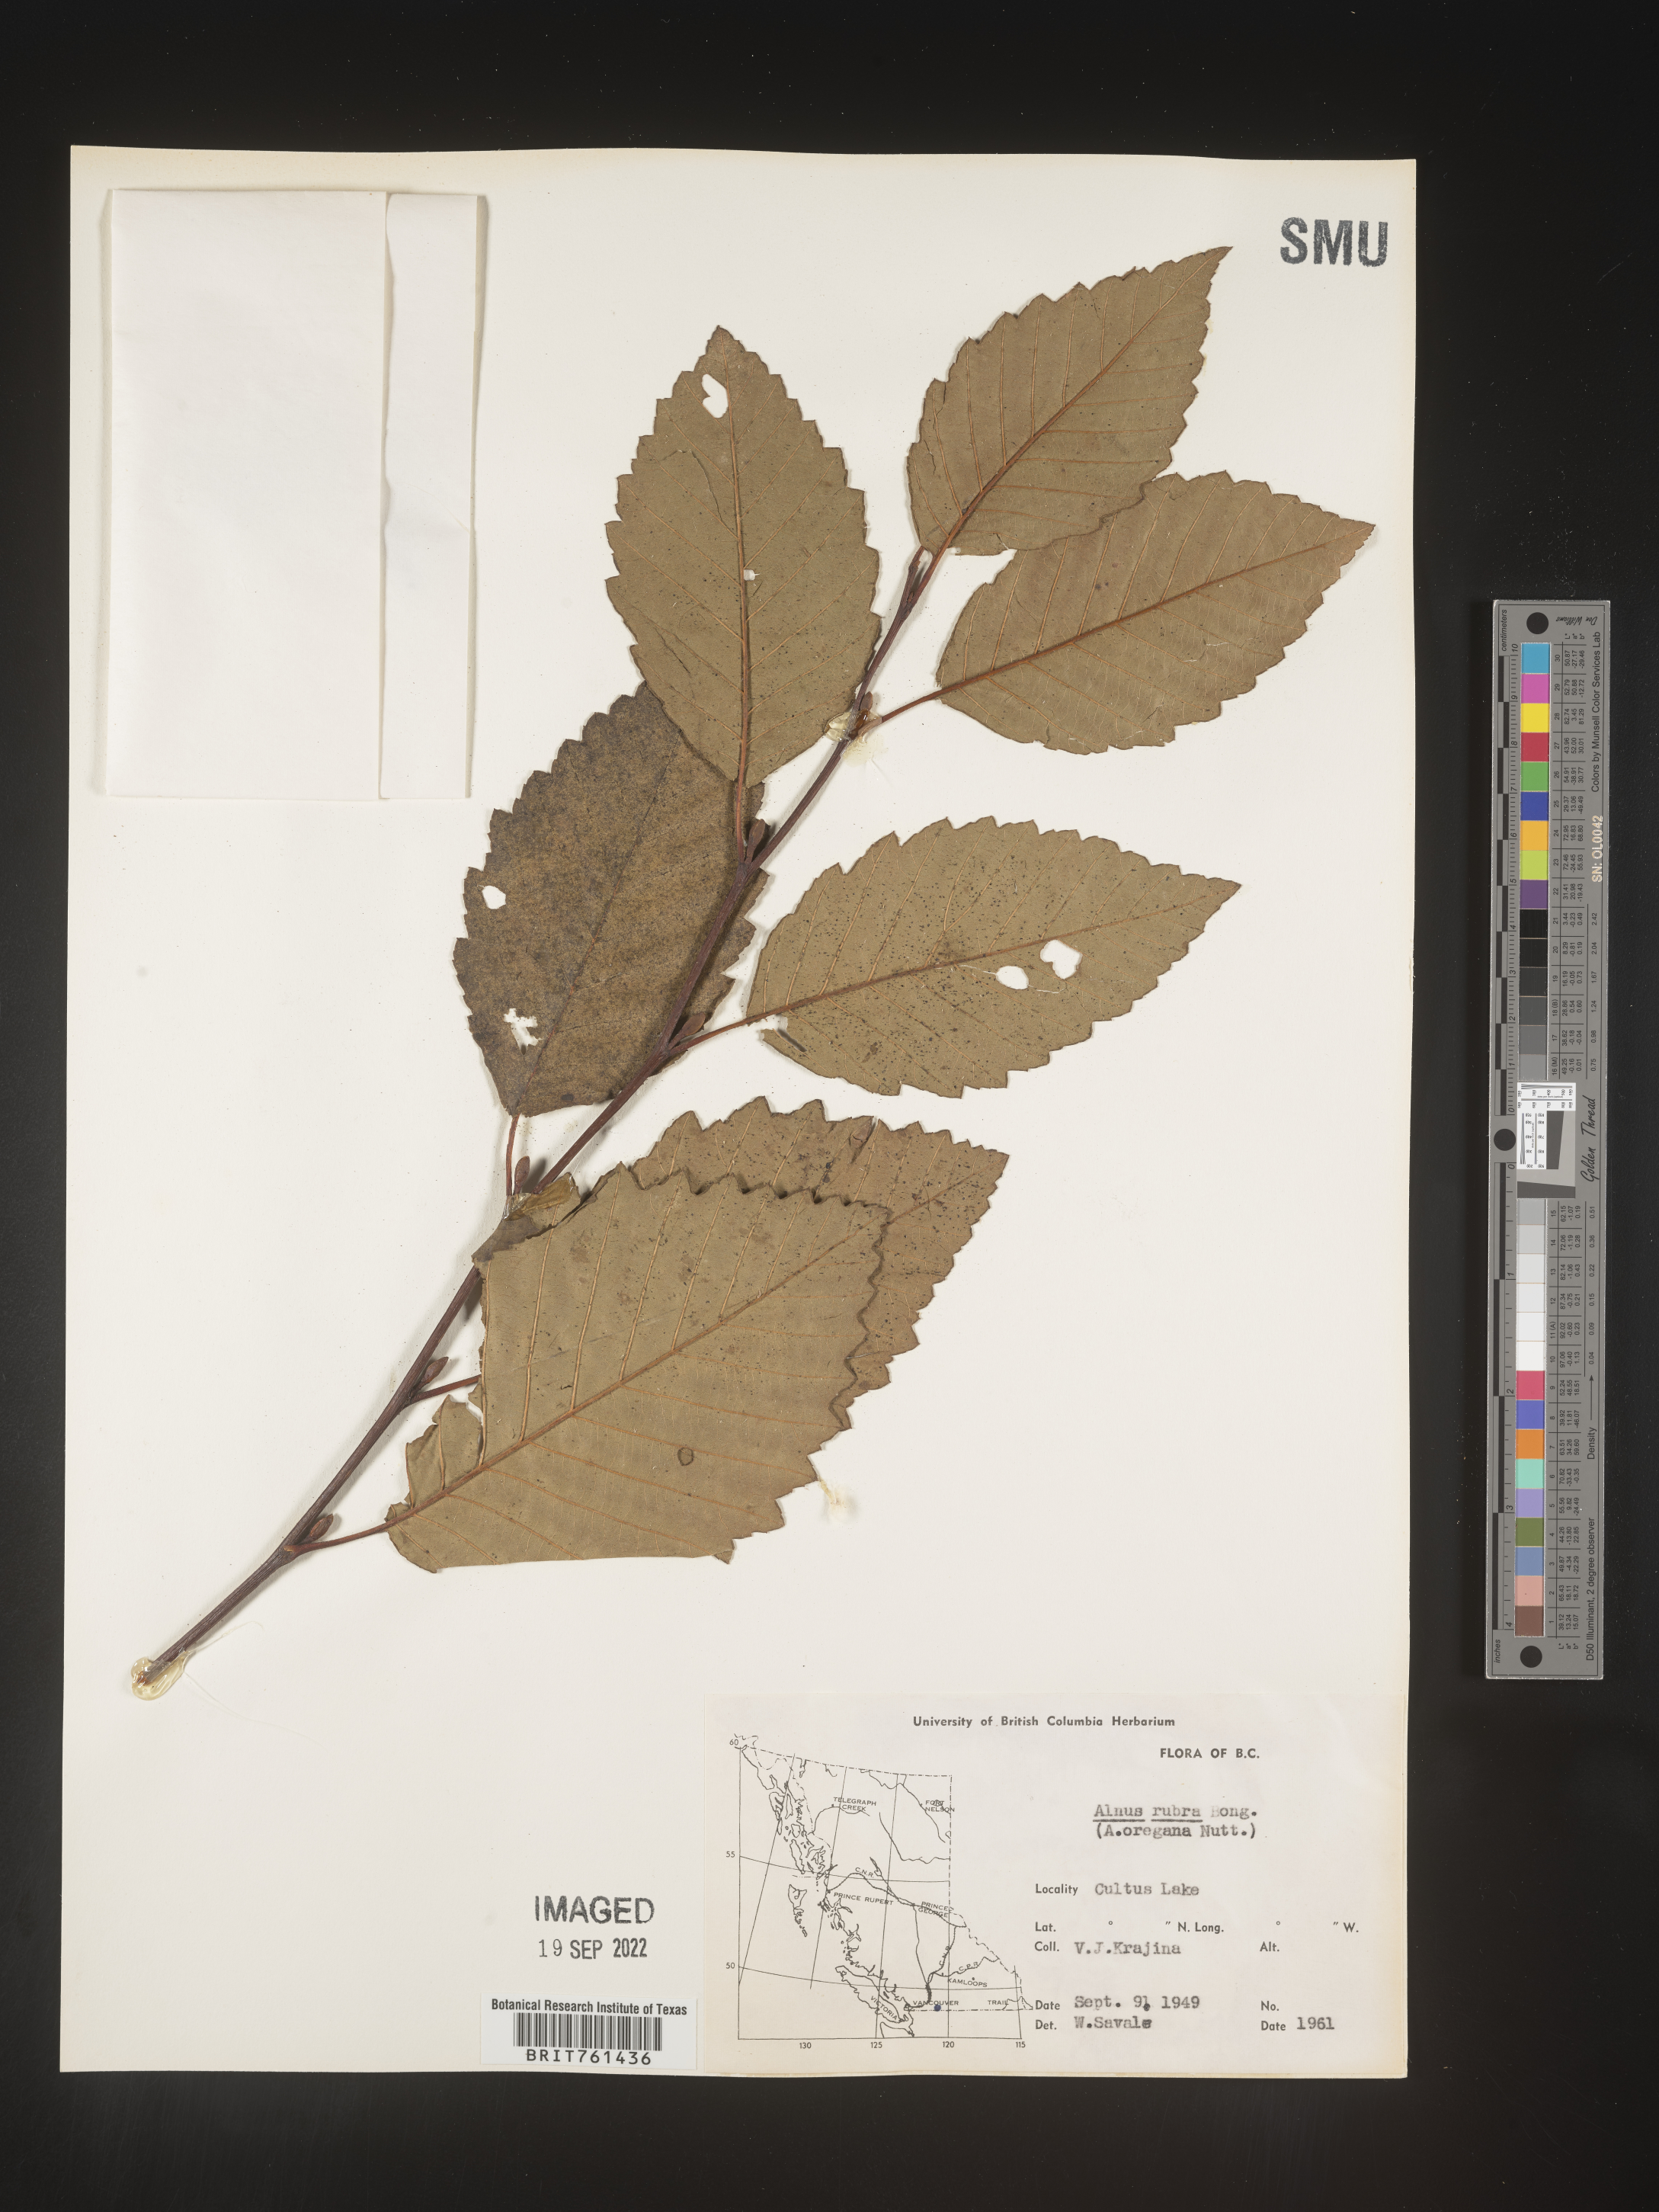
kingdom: Plantae
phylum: Tracheophyta
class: Magnoliopsida
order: Fagales
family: Betulaceae
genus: Alnus
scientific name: Alnus rubra
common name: Red alder
